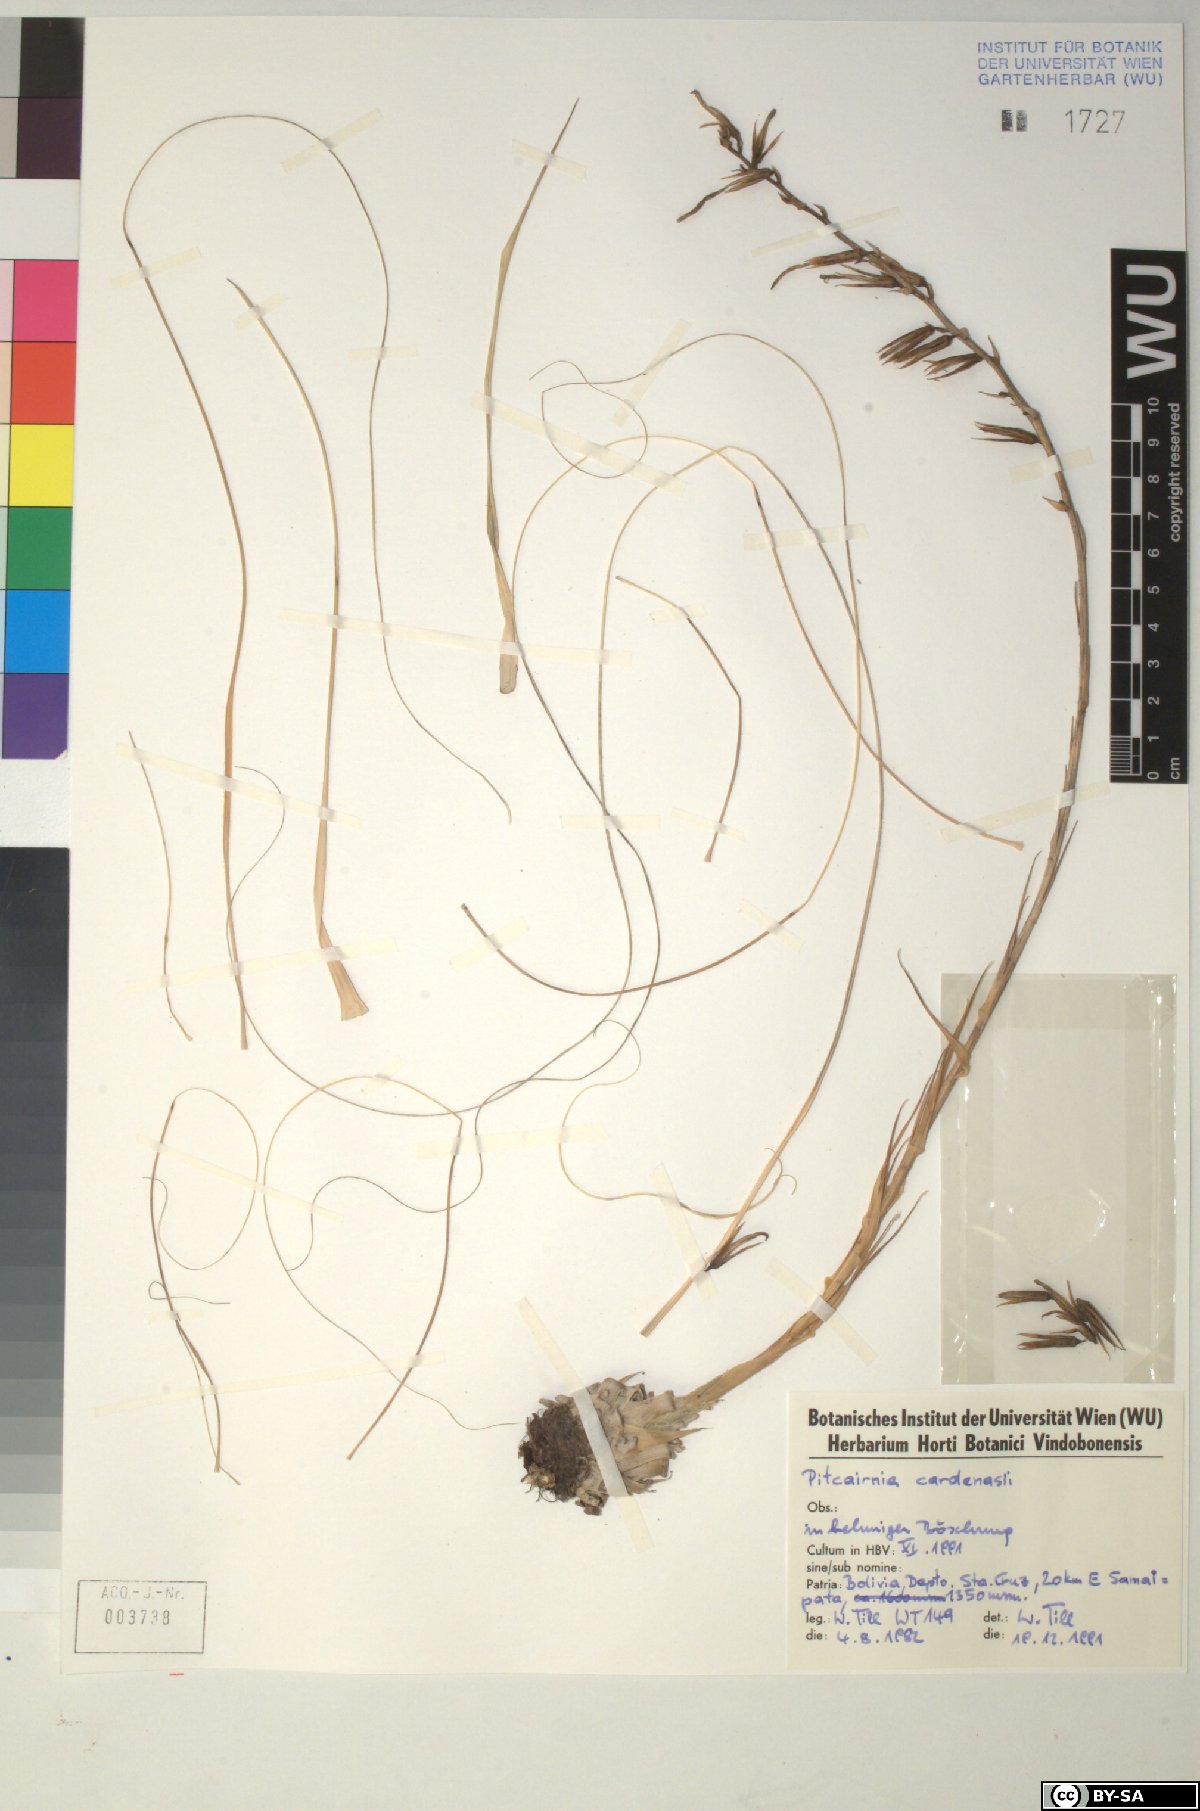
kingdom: Plantae
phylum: Tracheophyta
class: Liliopsida
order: Poales
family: Bromeliaceae
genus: Pitcairnia
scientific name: Pitcairnia
